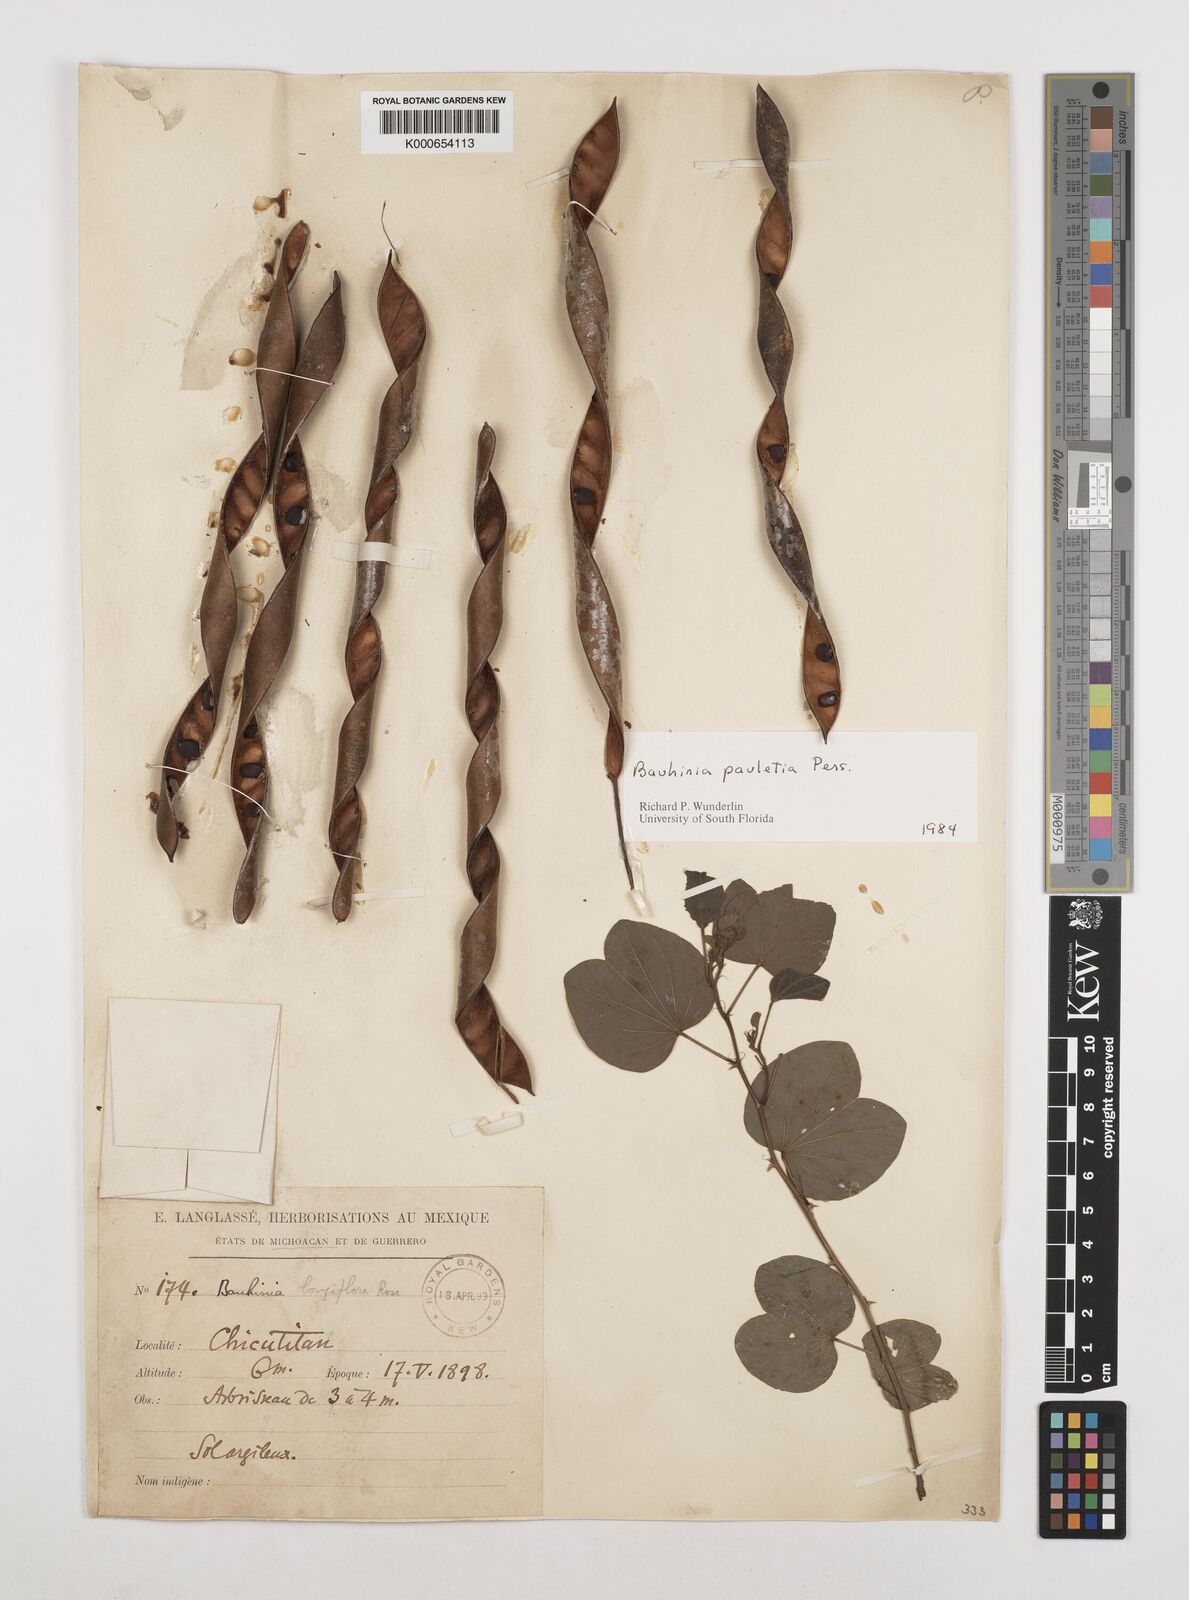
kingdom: Plantae
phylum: Tracheophyta
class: Magnoliopsida
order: Fabales
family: Fabaceae
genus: Bauhinia
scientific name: Bauhinia pauletia
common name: Railway-fence bauhinia
